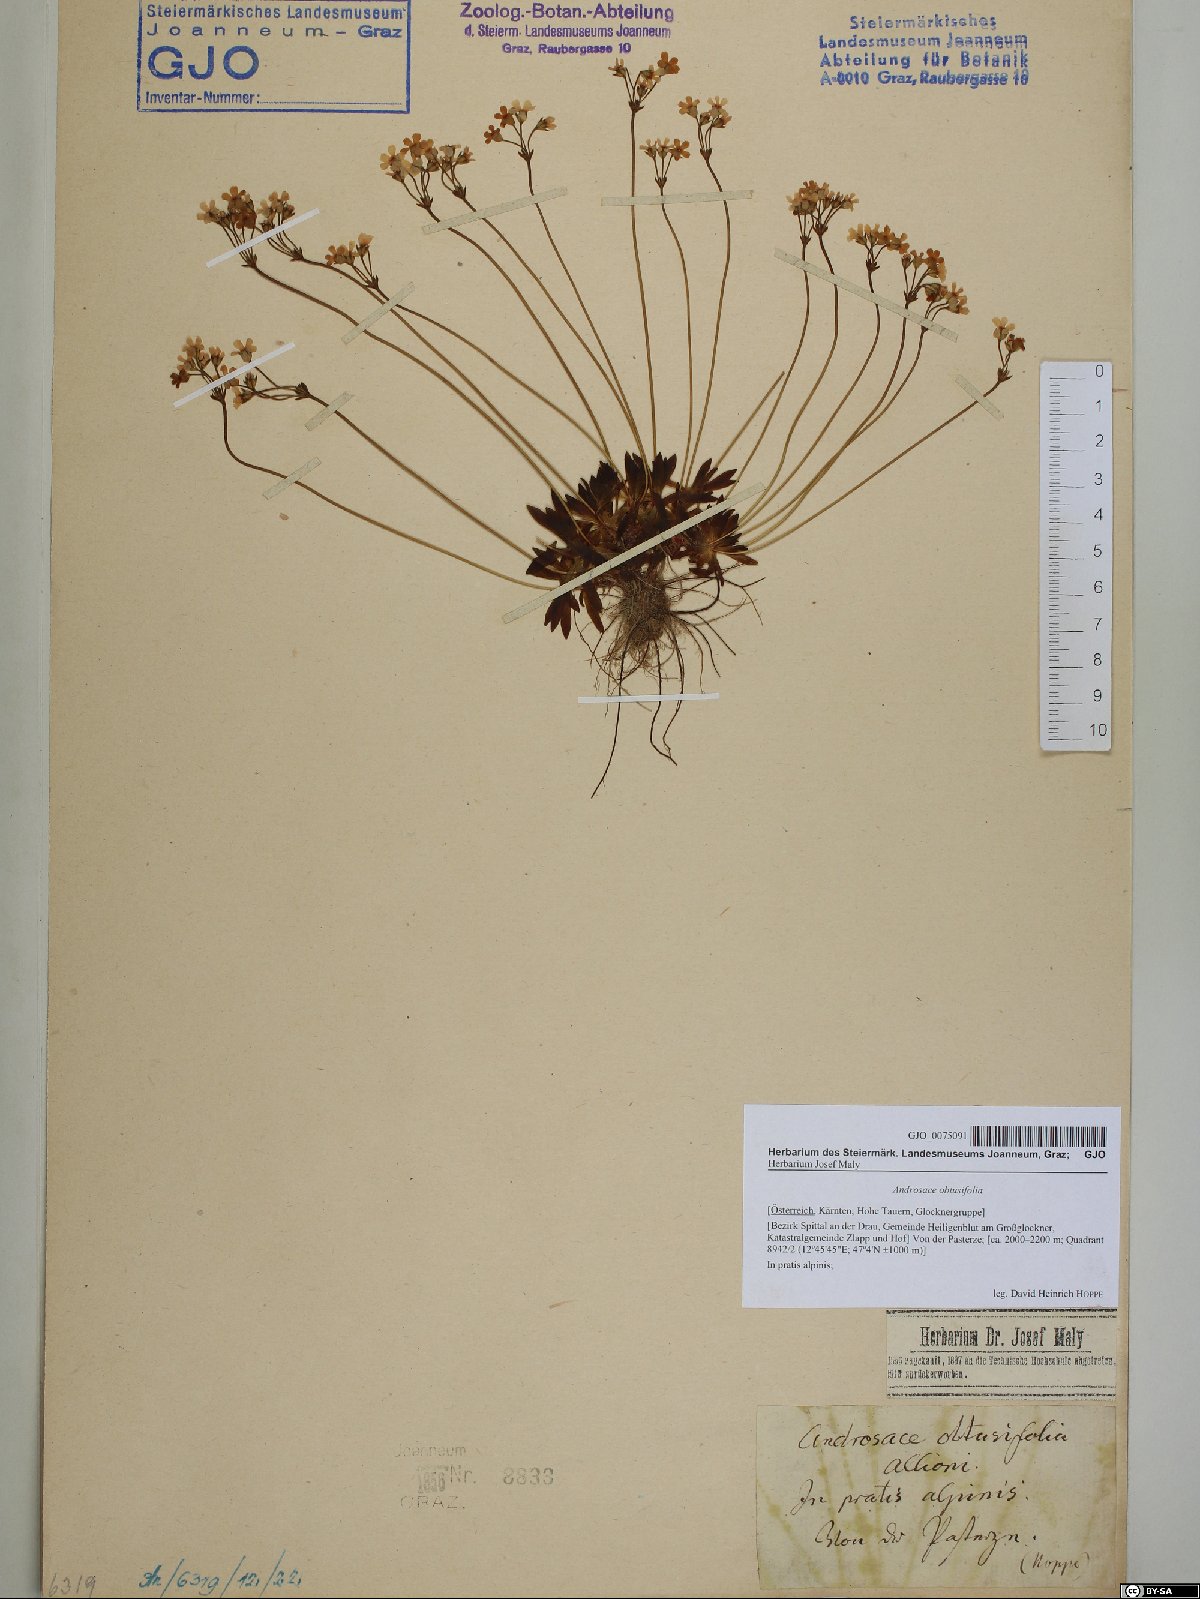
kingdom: Plantae
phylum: Tracheophyta
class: Magnoliopsida
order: Ericales
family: Primulaceae
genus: Androsace
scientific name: Androsace obtusifolia
